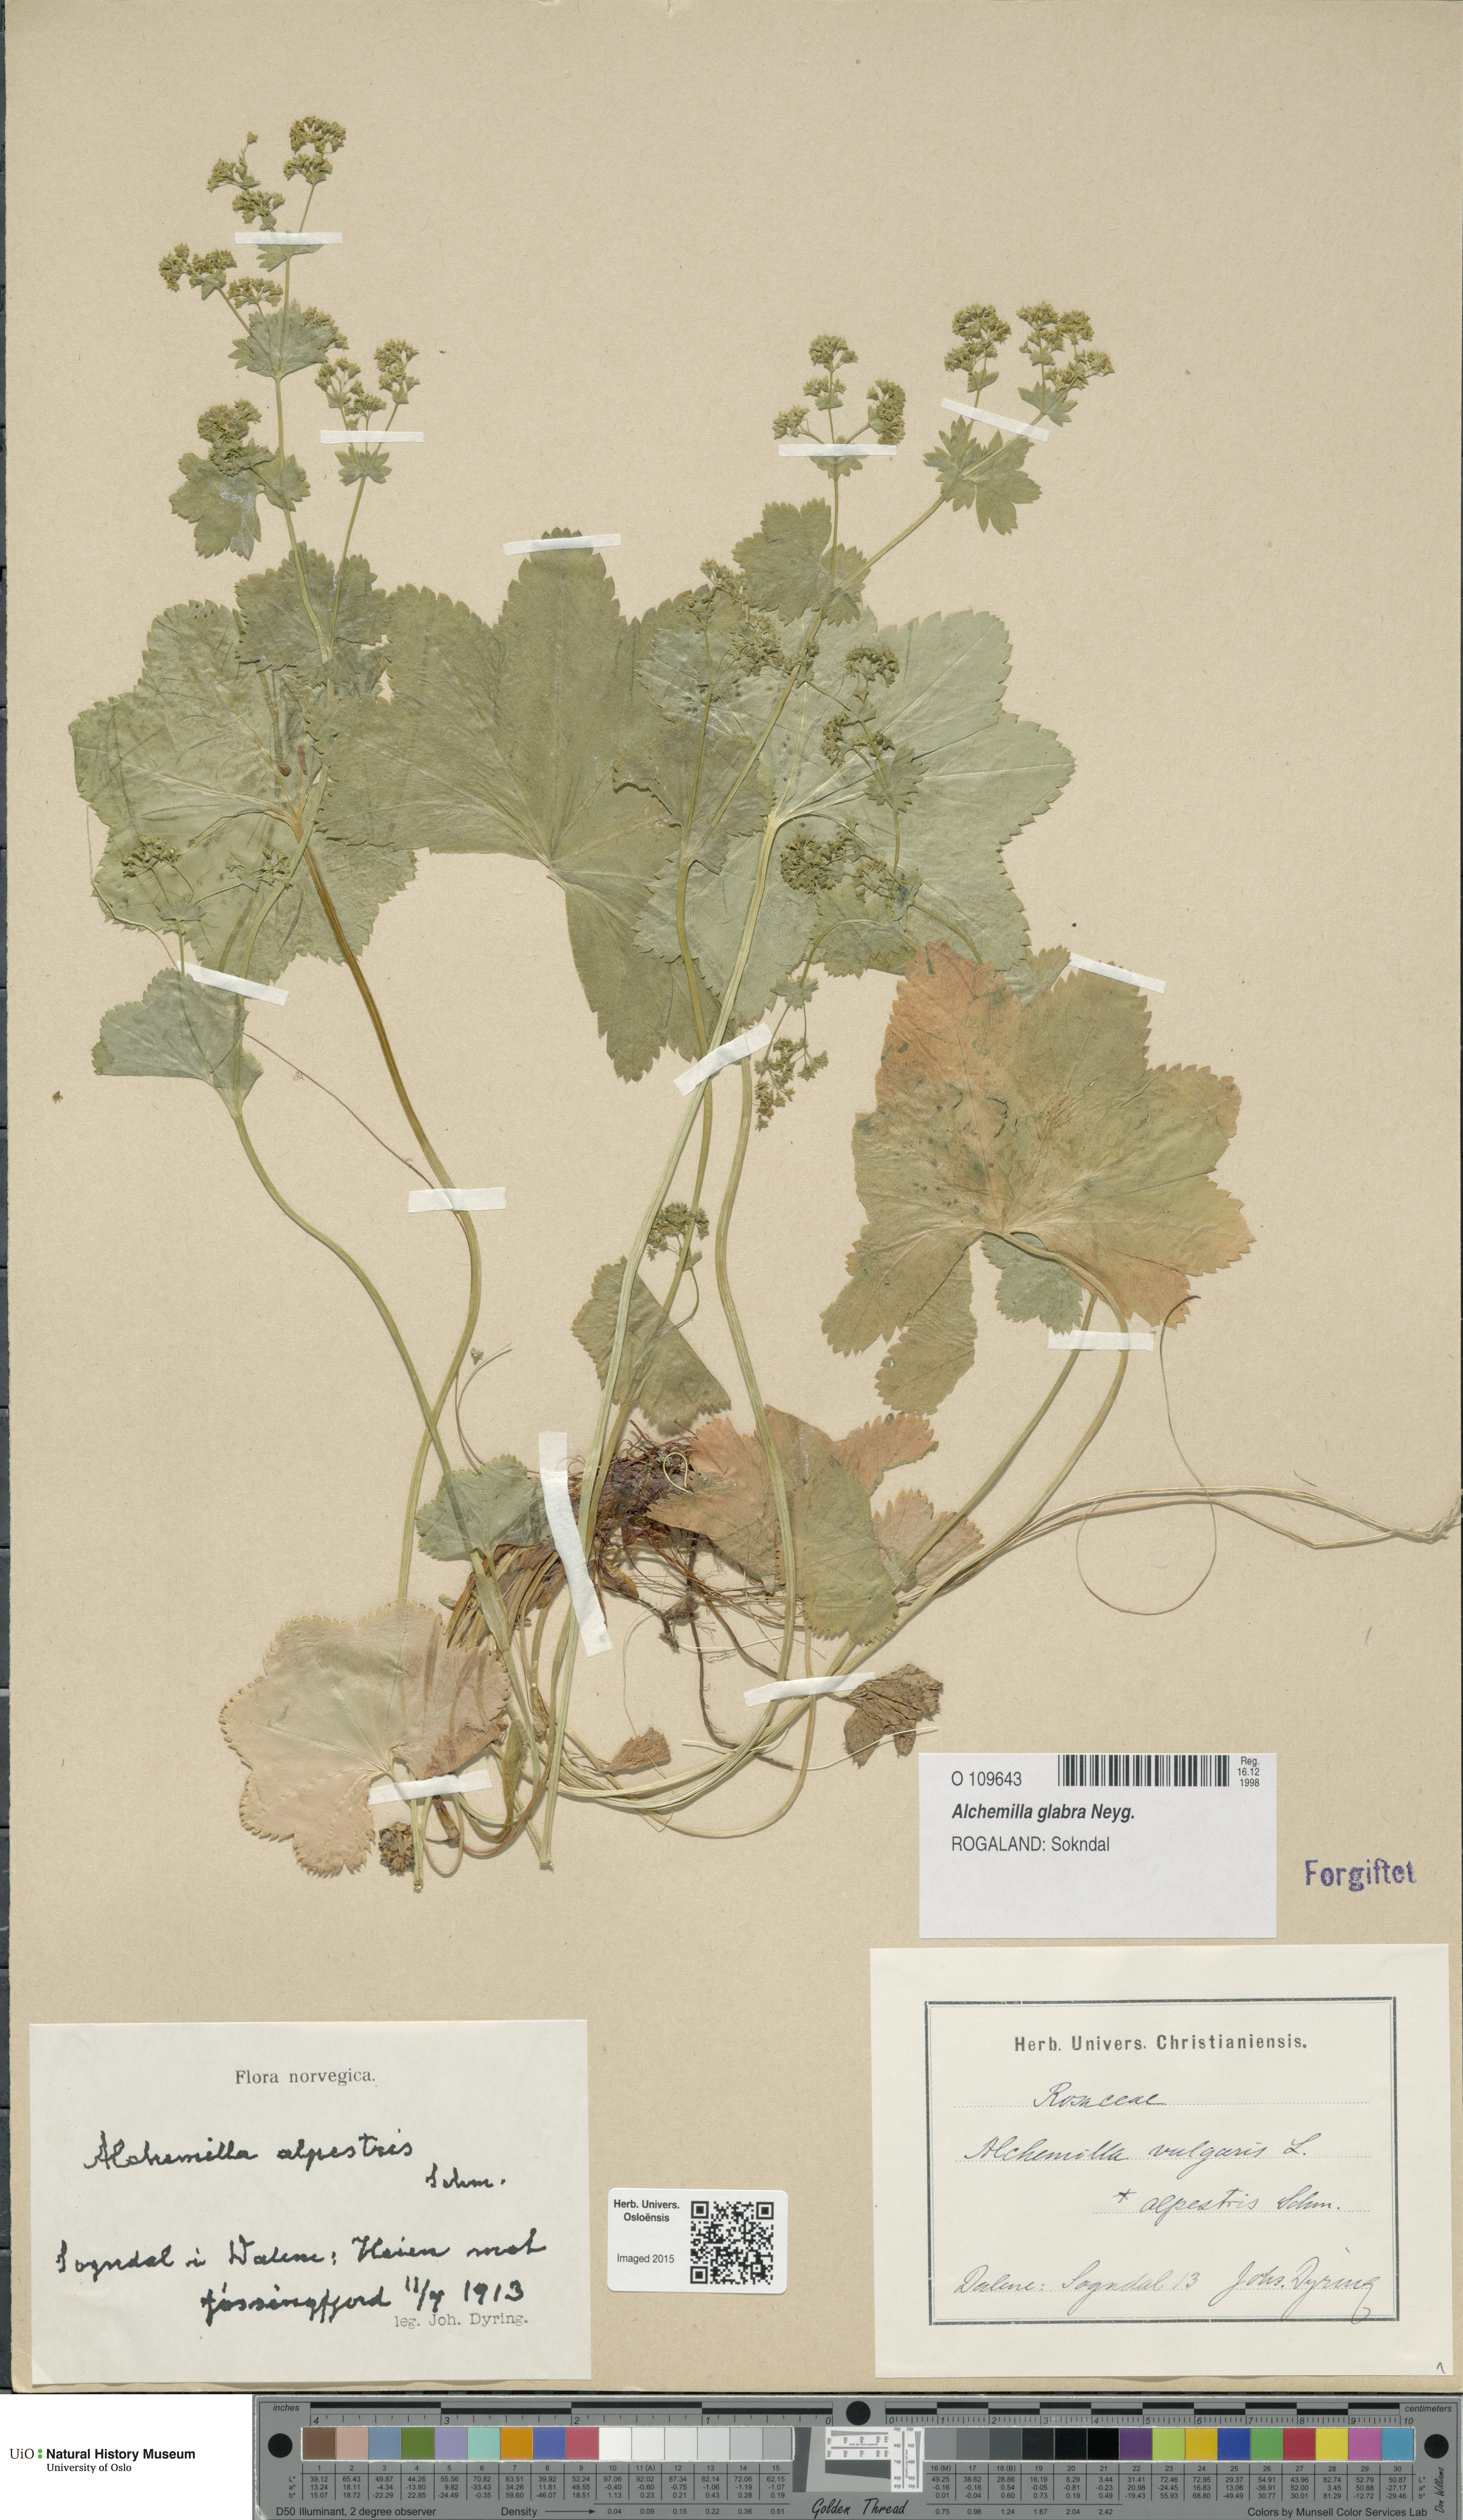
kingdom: Plantae
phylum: Tracheophyta
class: Magnoliopsida
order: Rosales
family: Rosaceae
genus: Alchemilla
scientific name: Alchemilla glabra
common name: Smooth lady's-mantle
